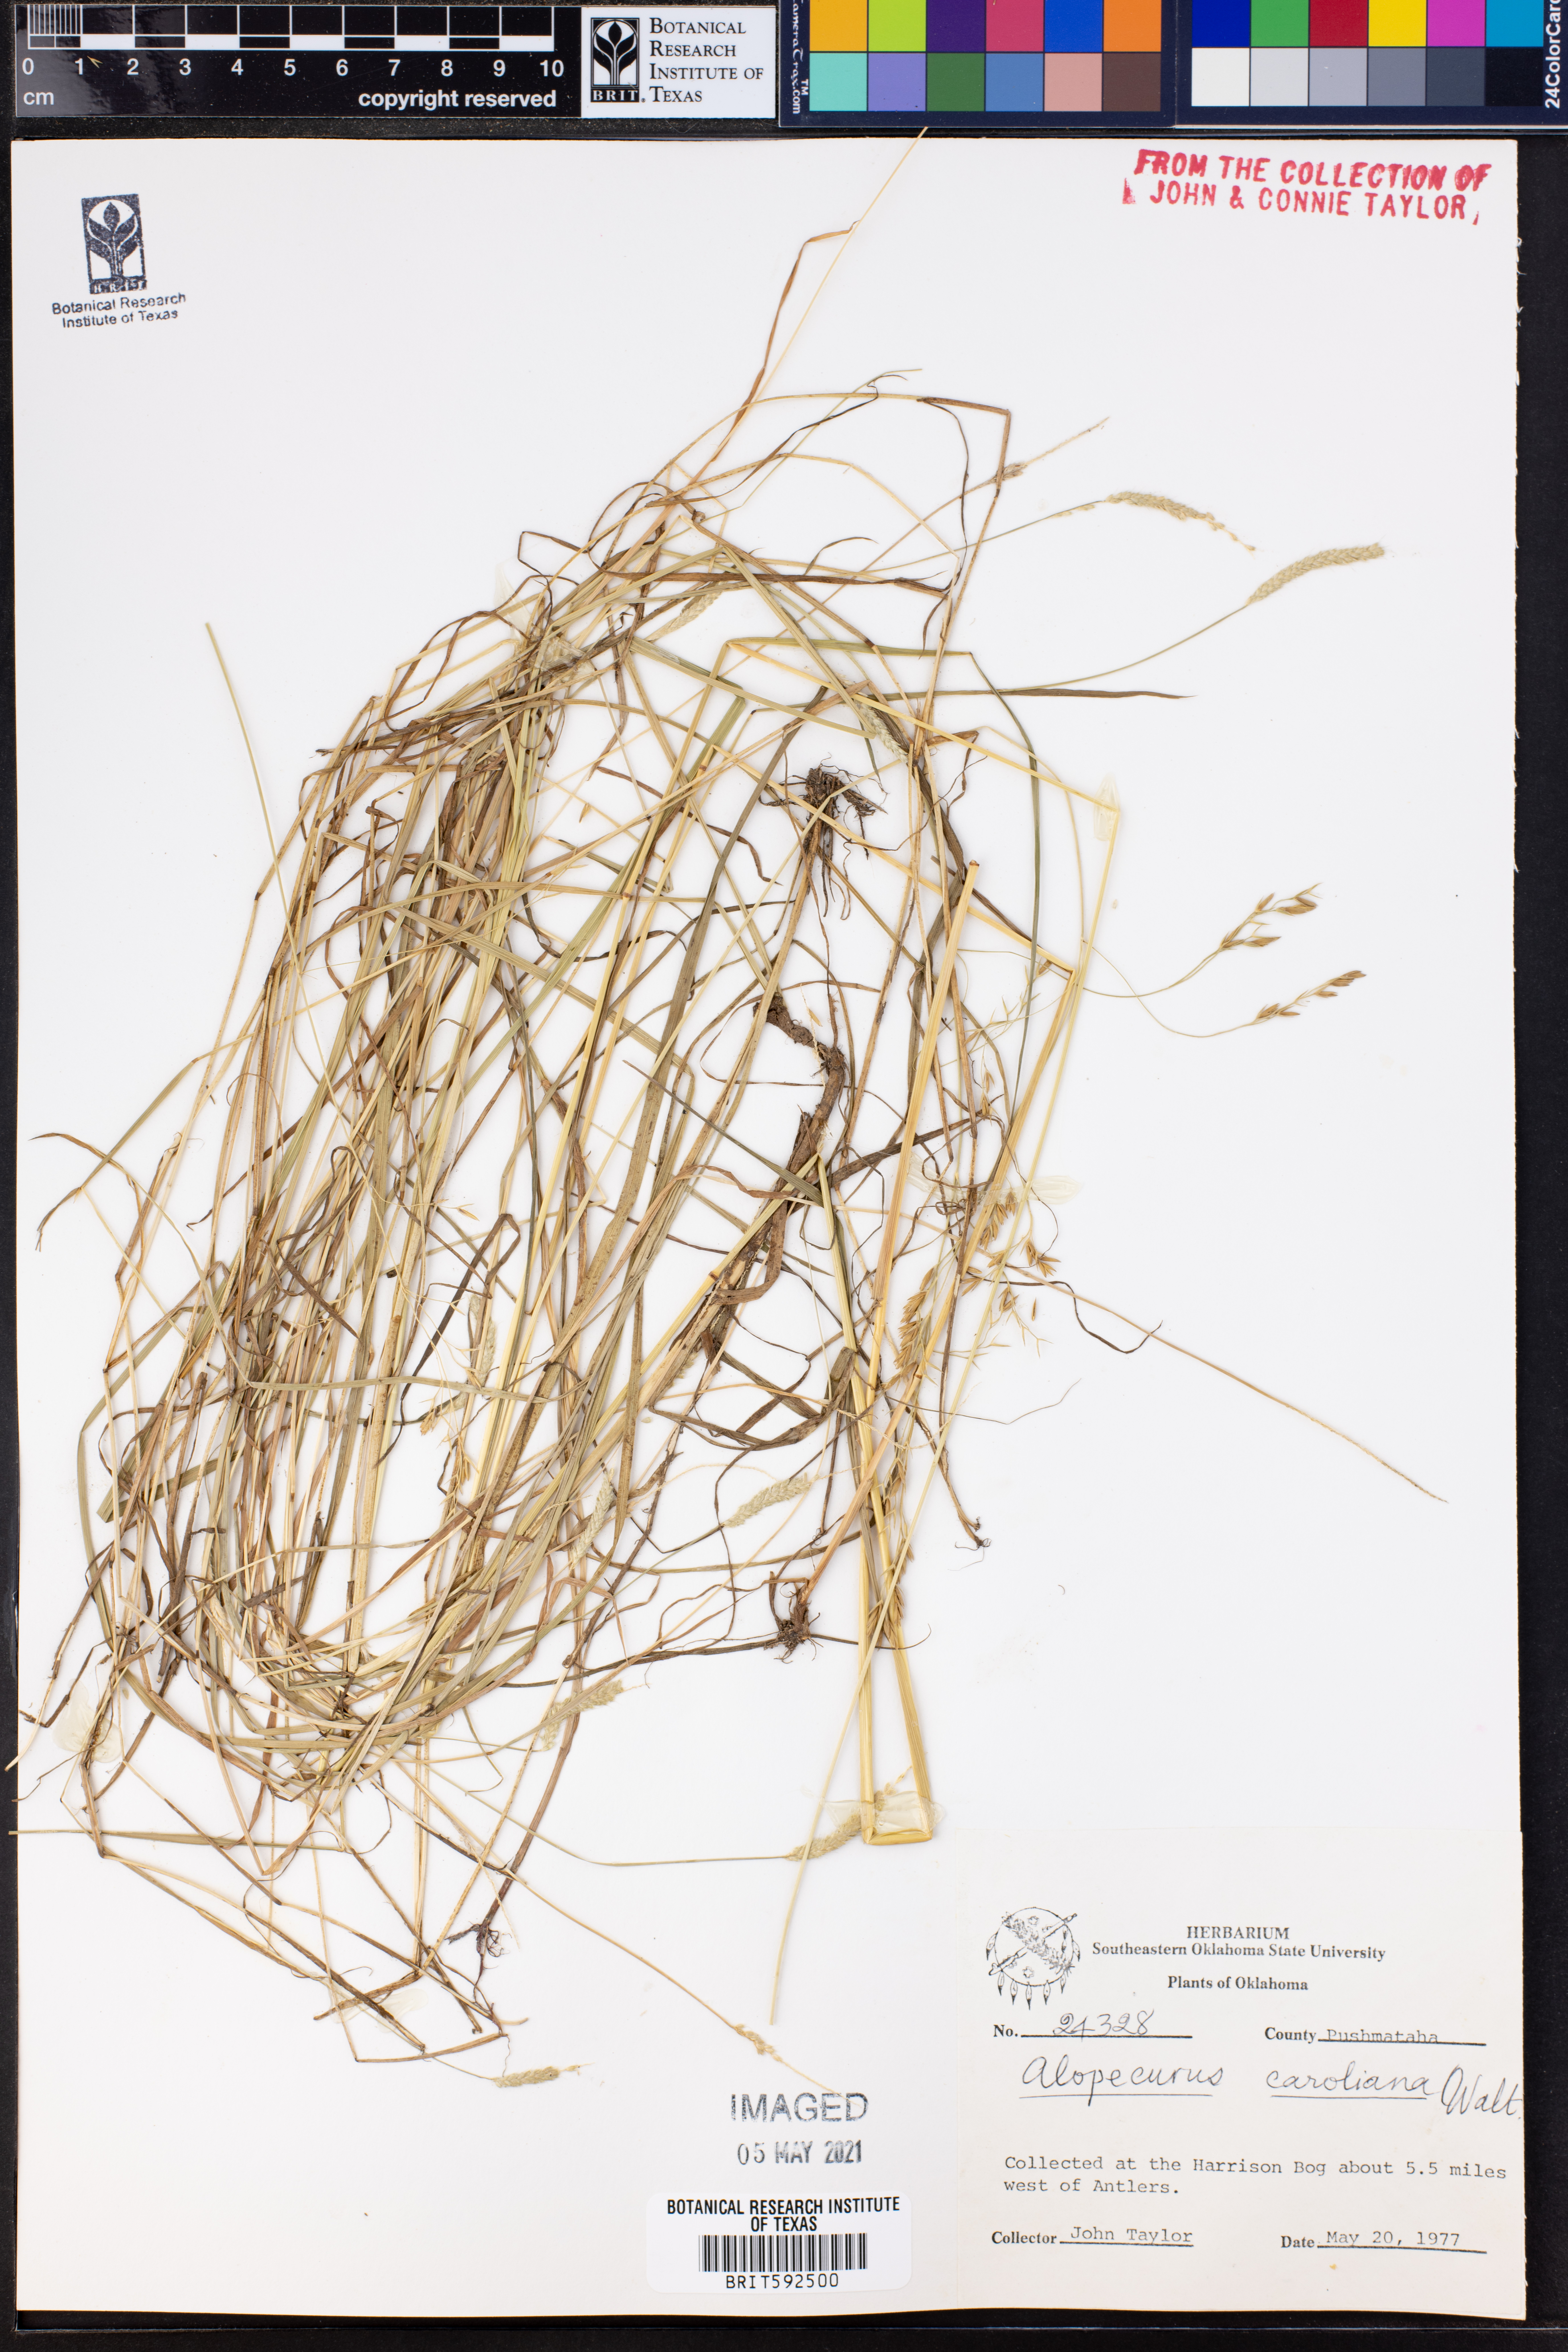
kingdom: Plantae
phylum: Tracheophyta
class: Liliopsida
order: Poales
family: Poaceae
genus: Alopecurus
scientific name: Alopecurus carolinianus
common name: Tufted foxtail
